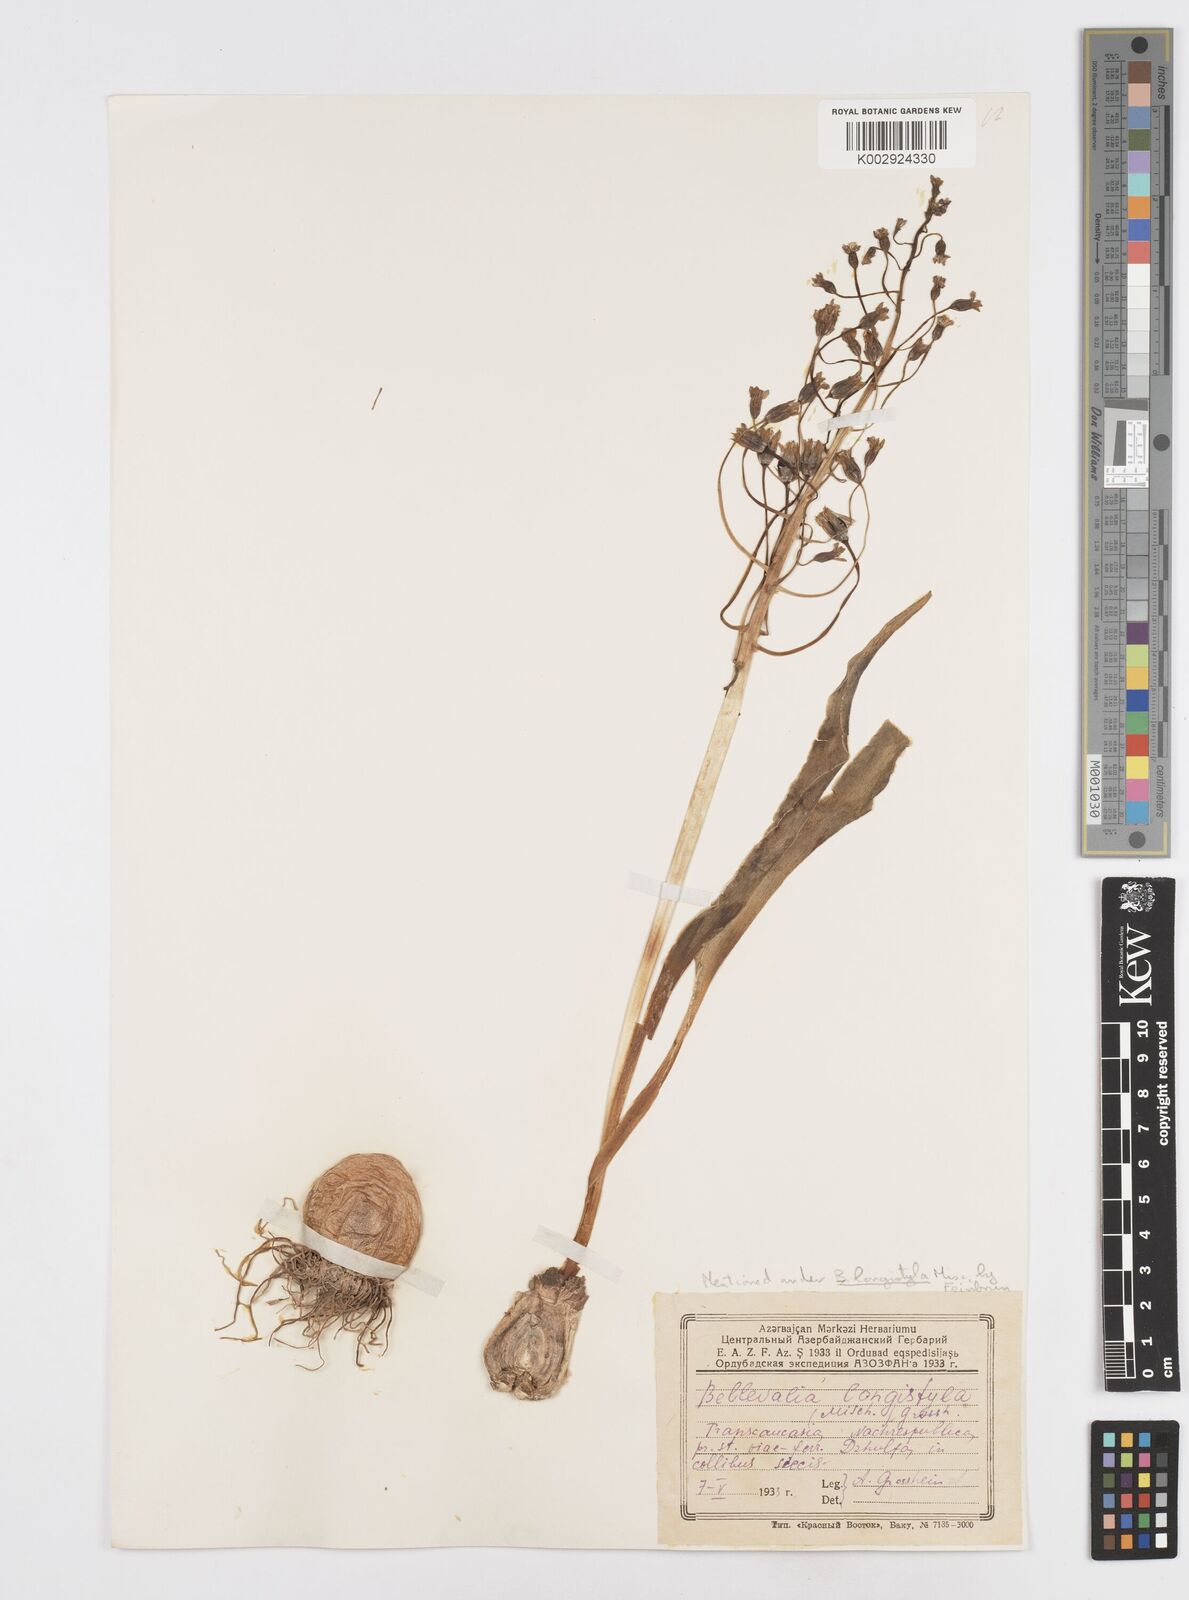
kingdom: Plantae
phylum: Tracheophyta
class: Liliopsida
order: Asparagales
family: Asparagaceae
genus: Bellevalia
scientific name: Bellevalia longistyla
